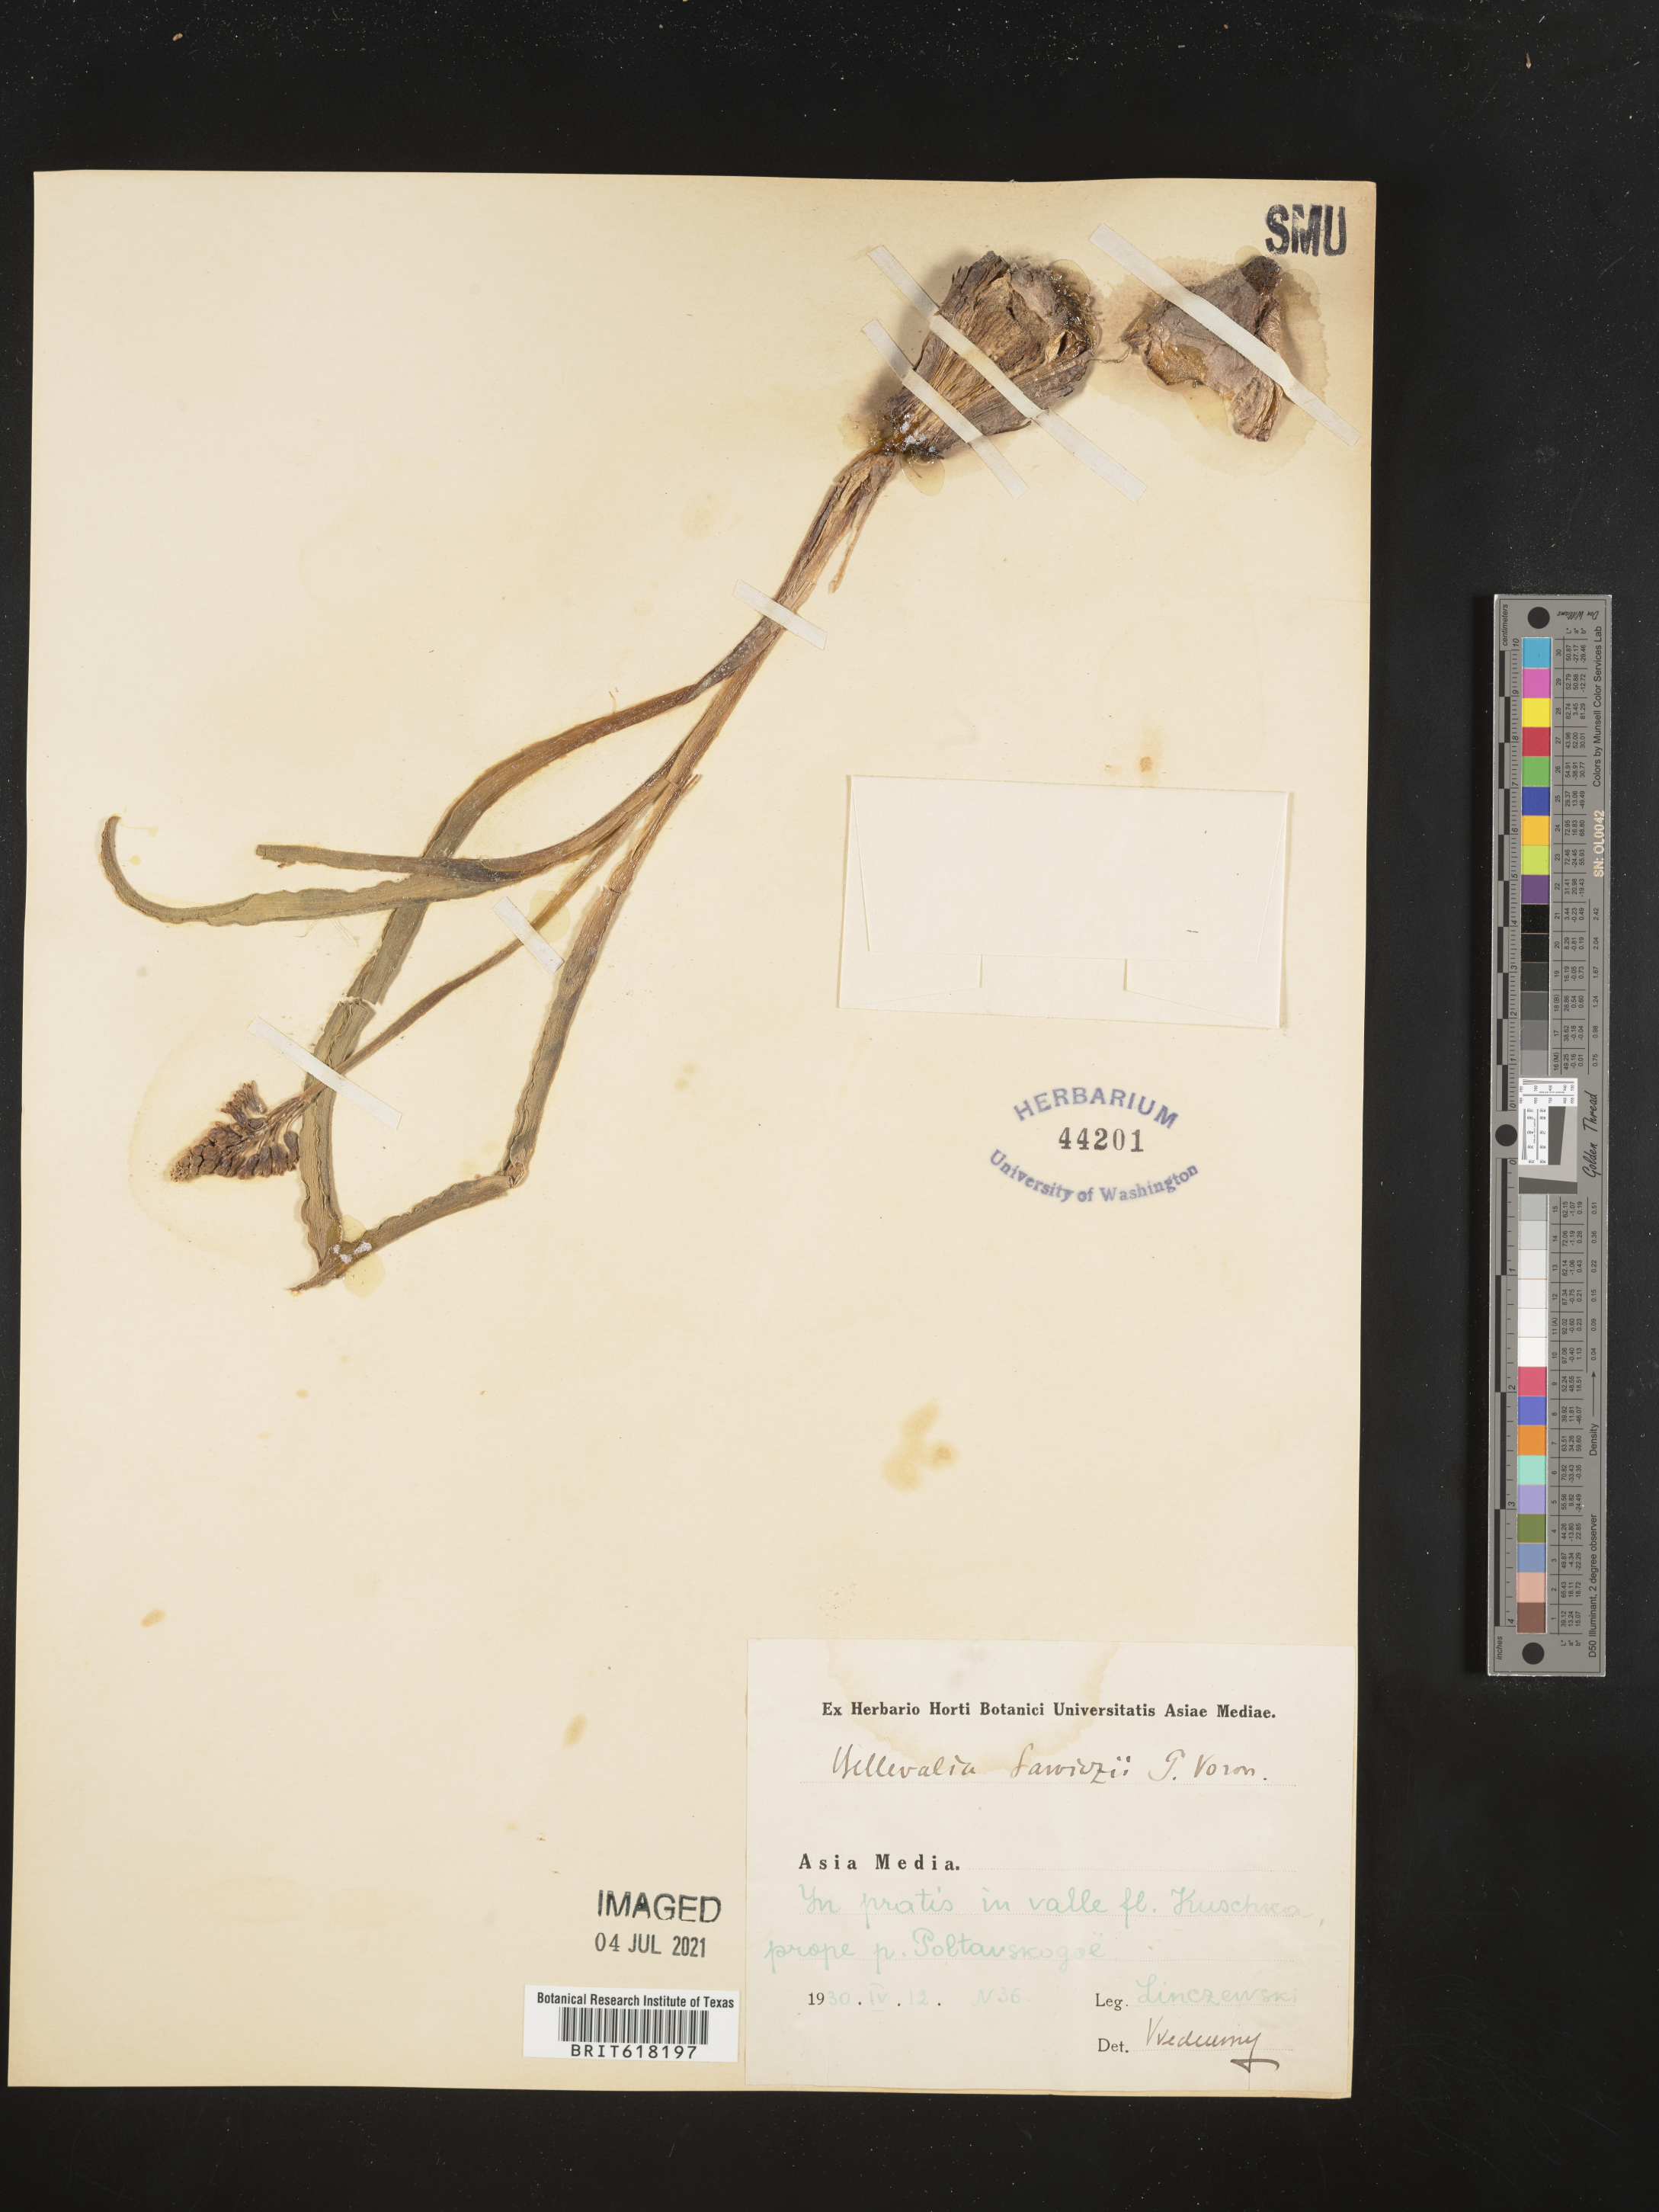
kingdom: Plantae
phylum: Tracheophyta
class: Liliopsida
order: Asparagales
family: Asparagaceae
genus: Bellevalia
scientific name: Bellevalia saviczii
